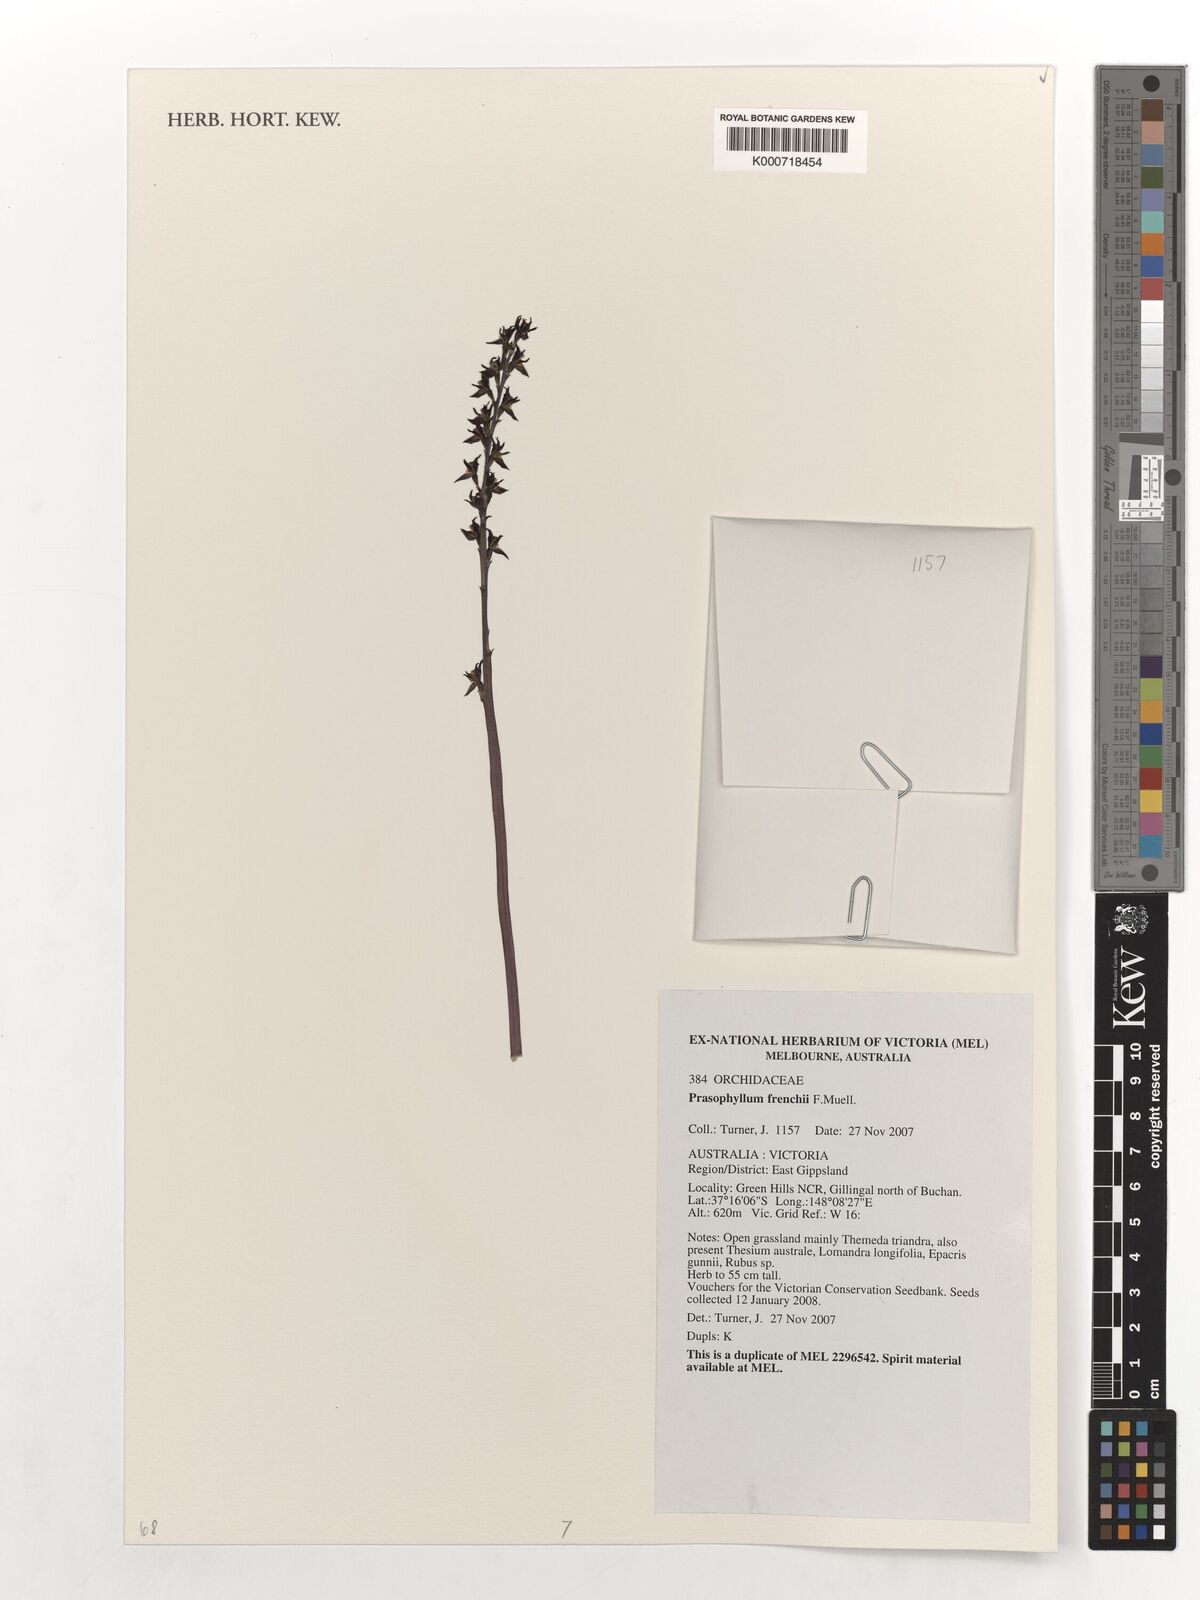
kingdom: Plantae
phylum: Tracheophyta
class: Liliopsida
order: Asparagales
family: Orchidaceae
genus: Prasophyllum
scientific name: Prasophyllum frenchii
